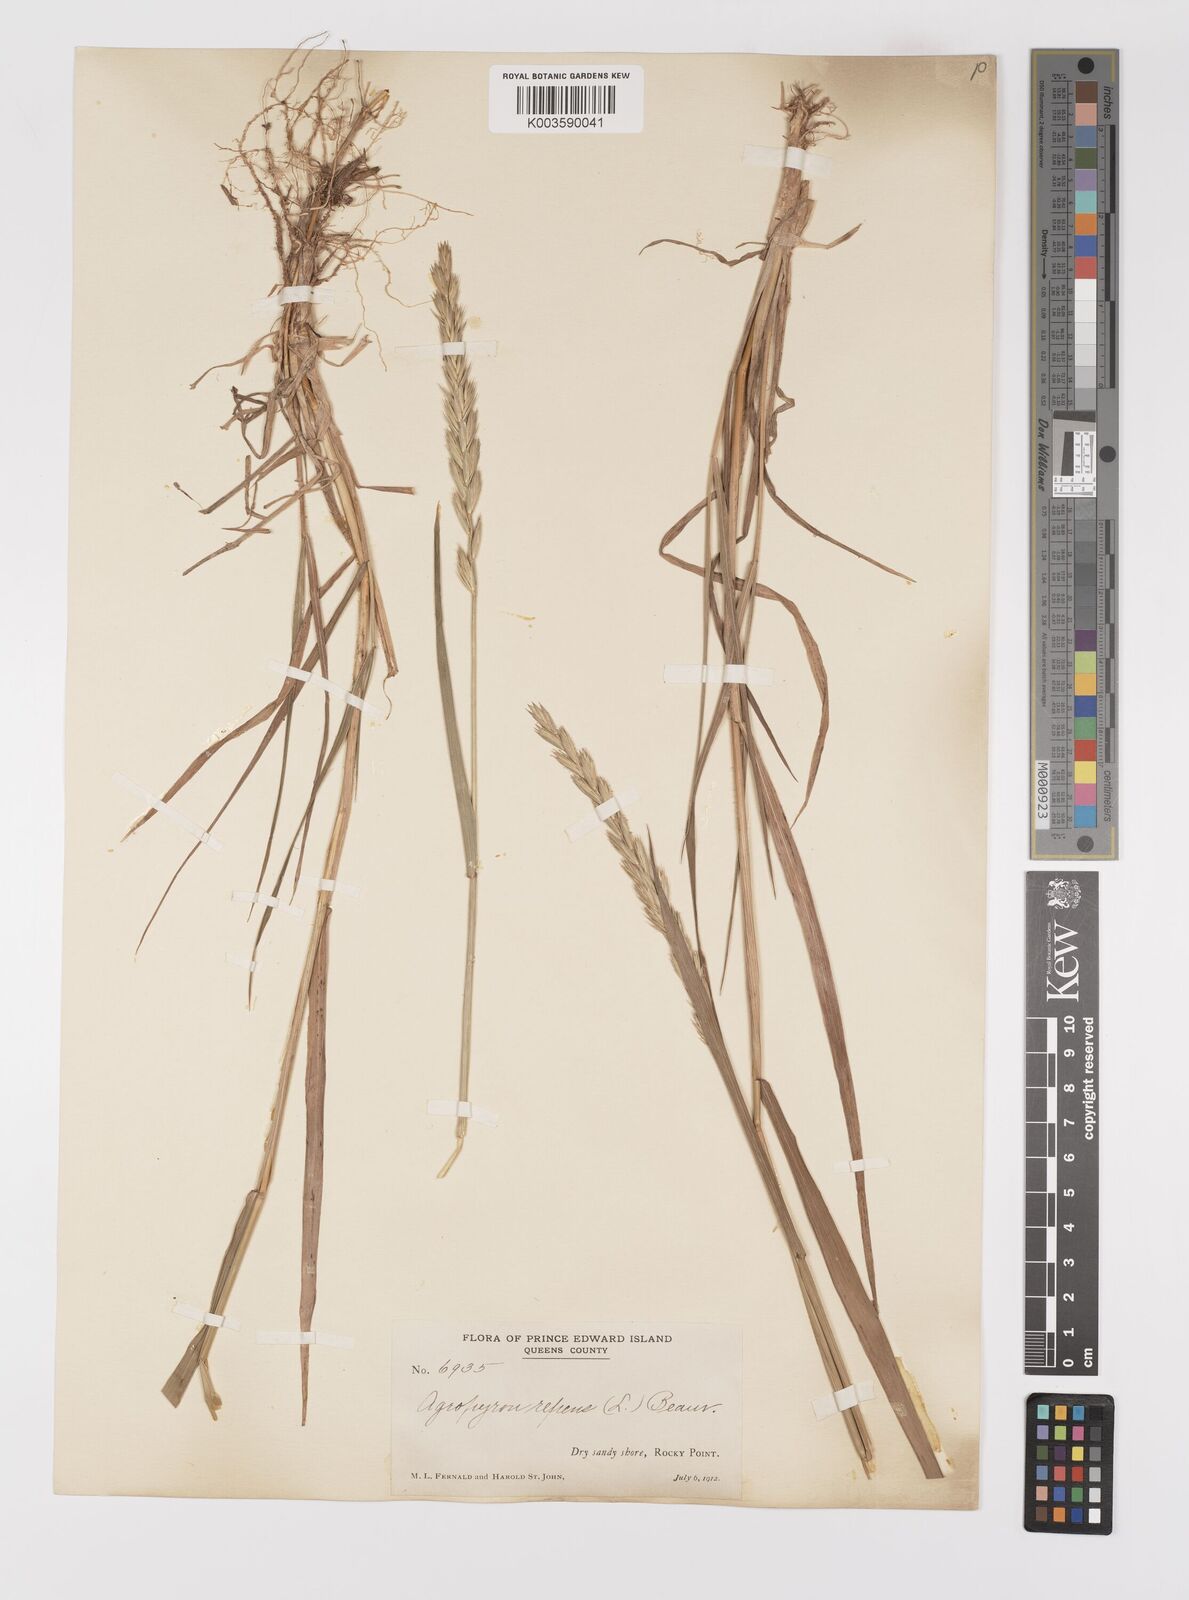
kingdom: Plantae
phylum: Tracheophyta
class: Liliopsida
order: Poales
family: Poaceae
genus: Elymus
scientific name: Elymus repens
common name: Quackgrass
